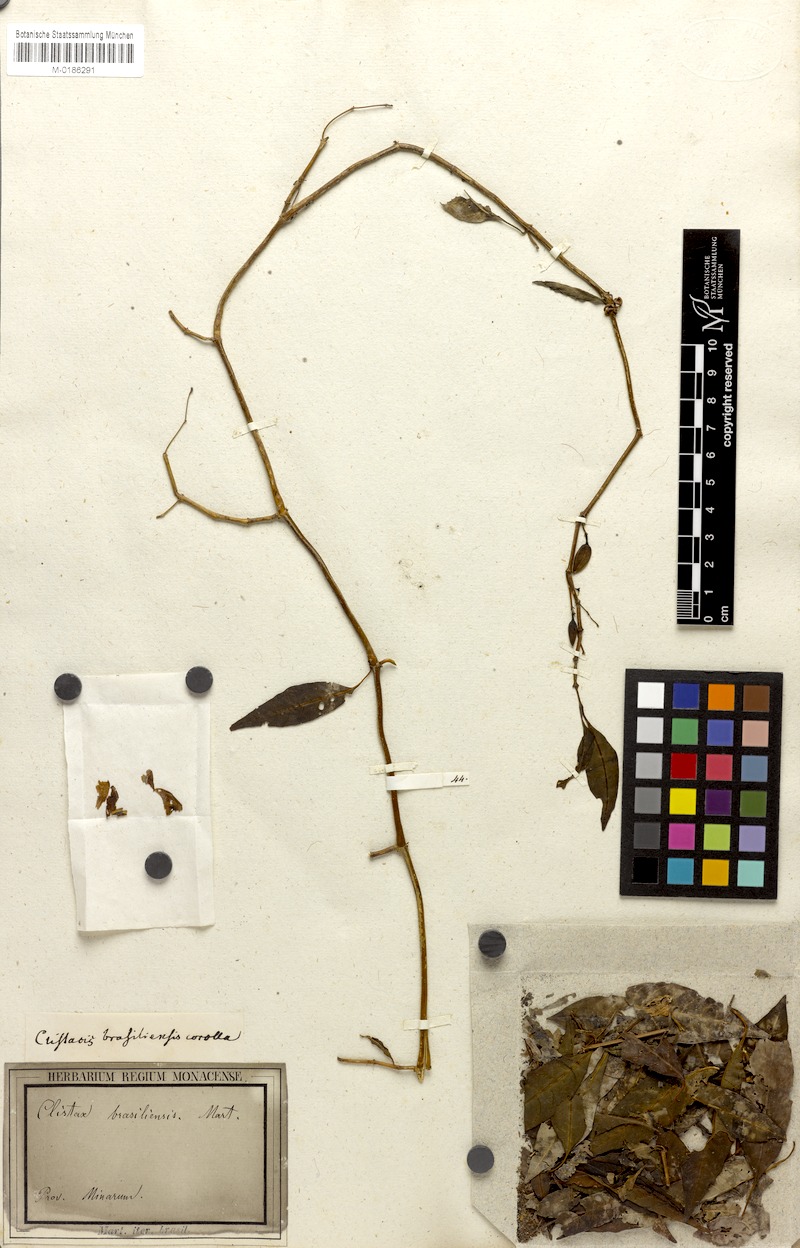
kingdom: Plantae
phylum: Tracheophyta
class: Magnoliopsida
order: Lamiales
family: Acanthaceae
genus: Clistax
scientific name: Clistax brasiliensis
